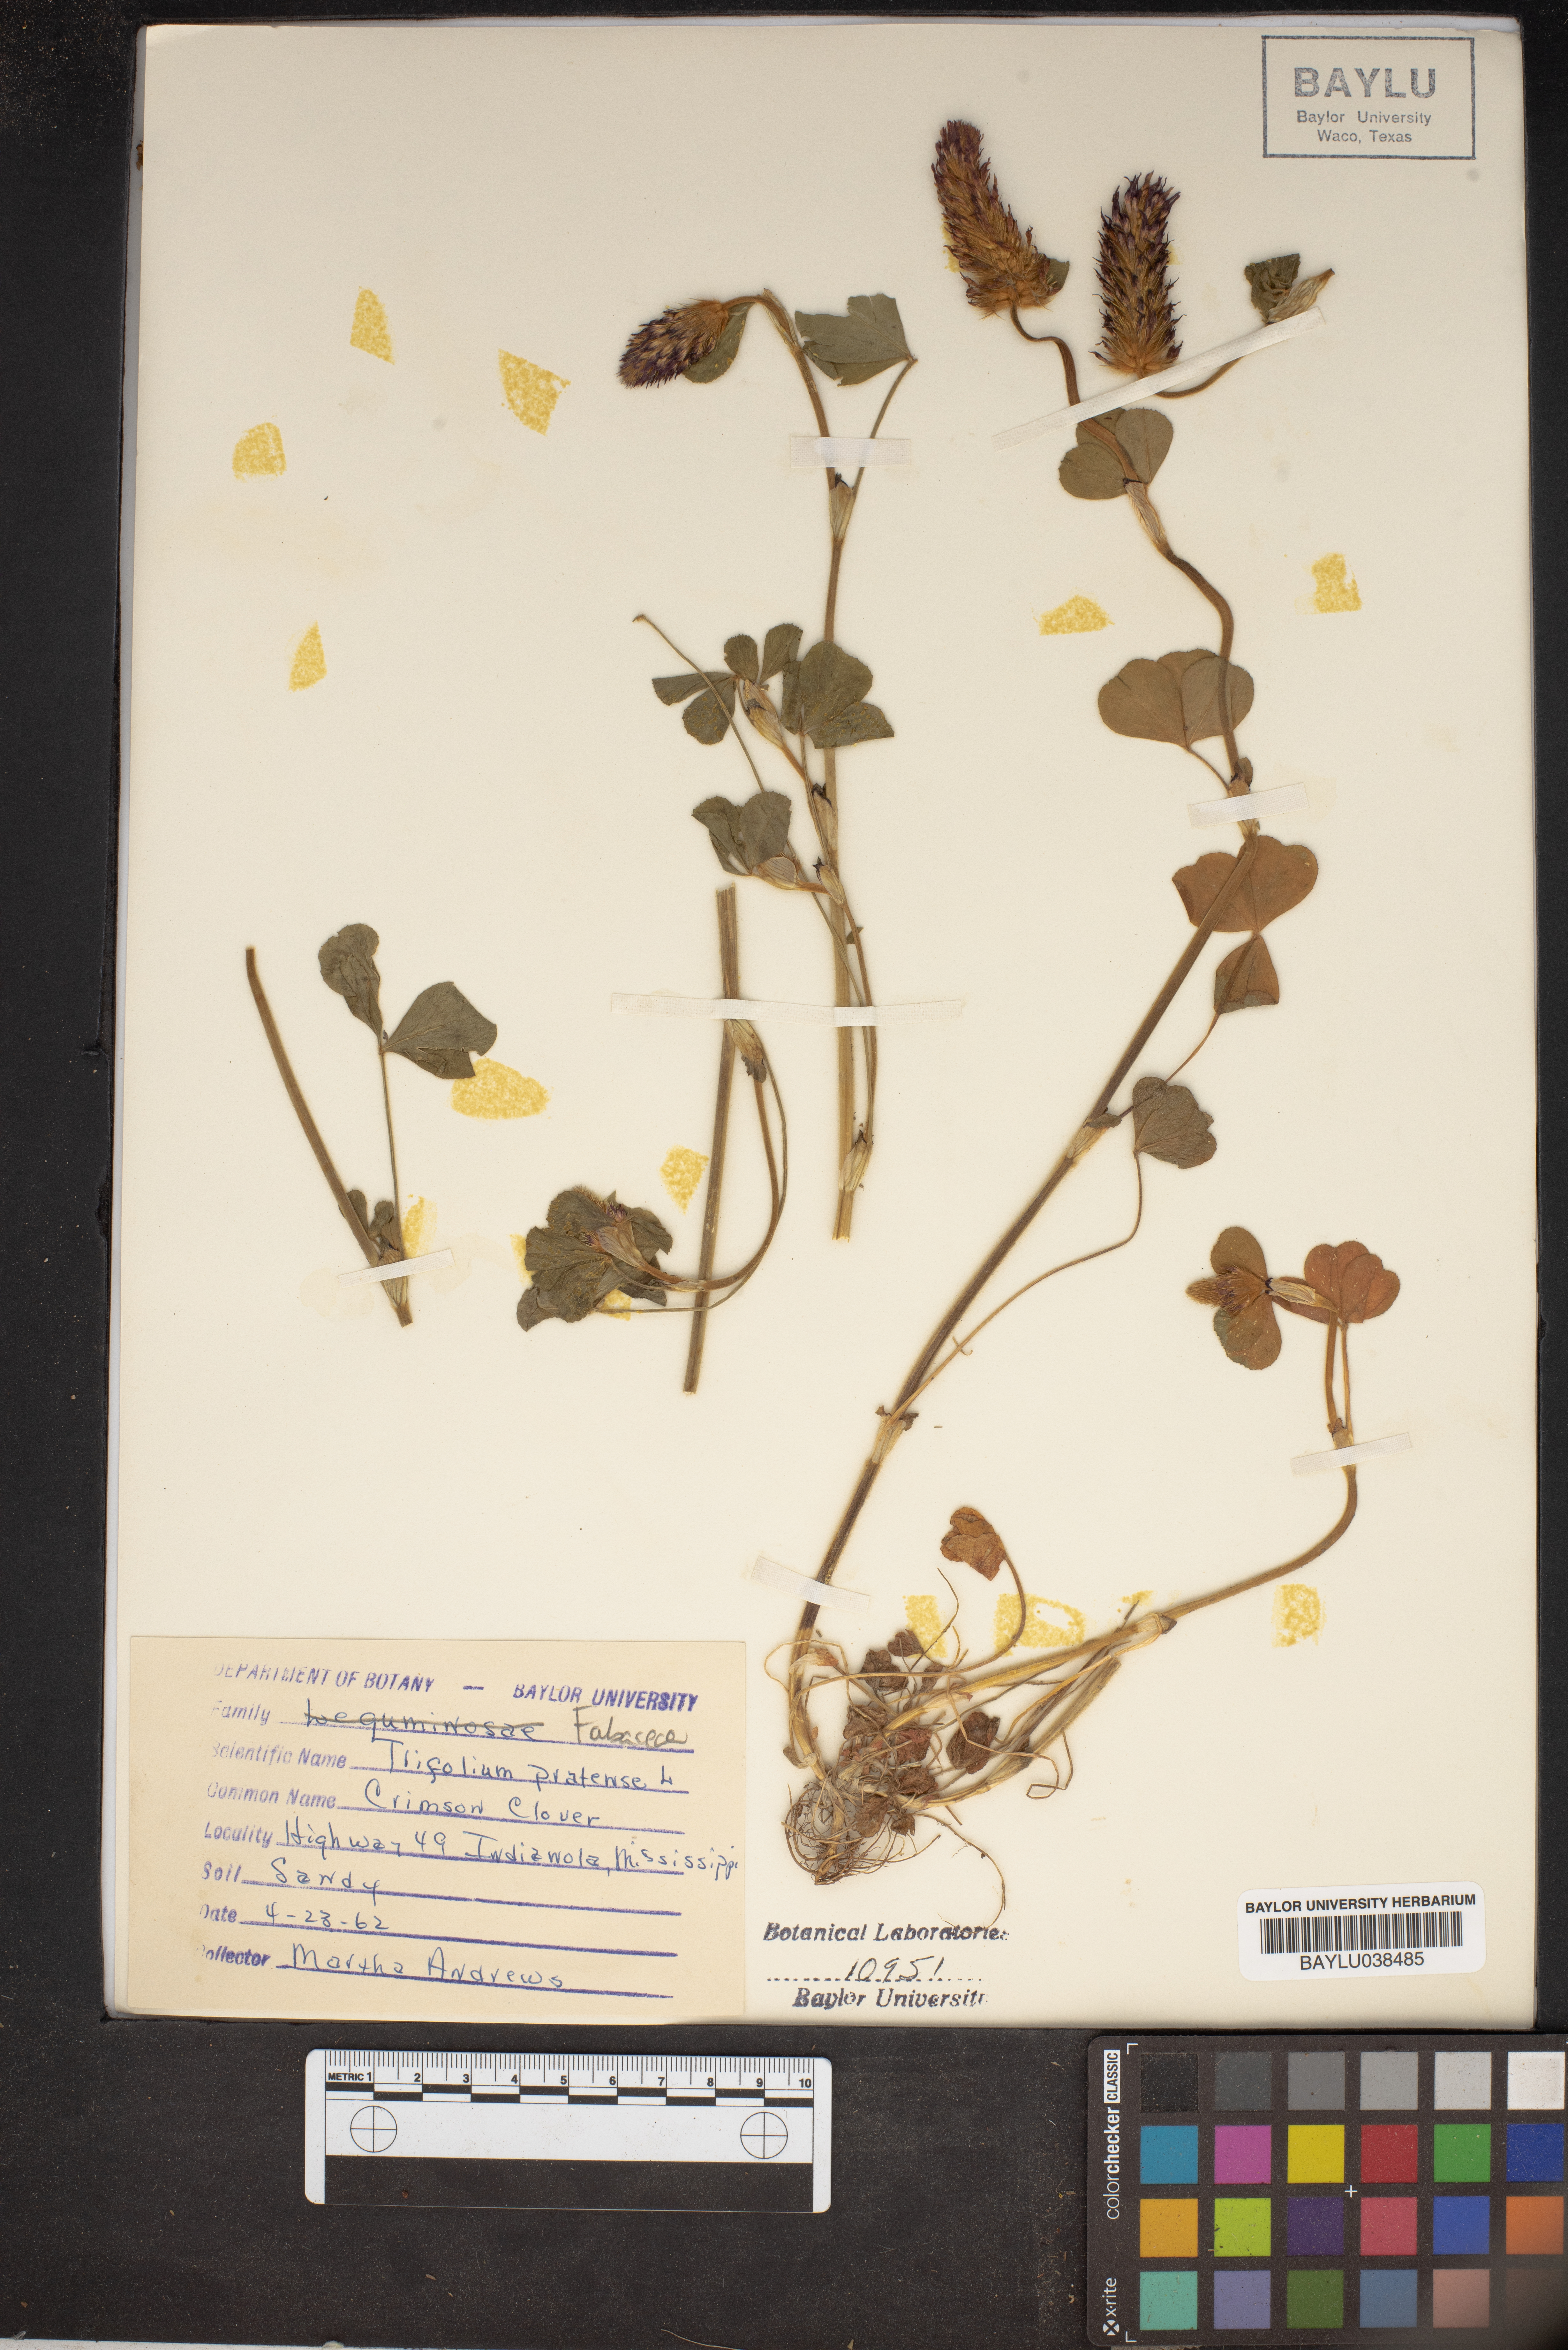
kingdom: Plantae
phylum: Tracheophyta
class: Magnoliopsida
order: Fabales
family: Fabaceae
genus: Trifolium
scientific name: Trifolium pratense
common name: Red clover
